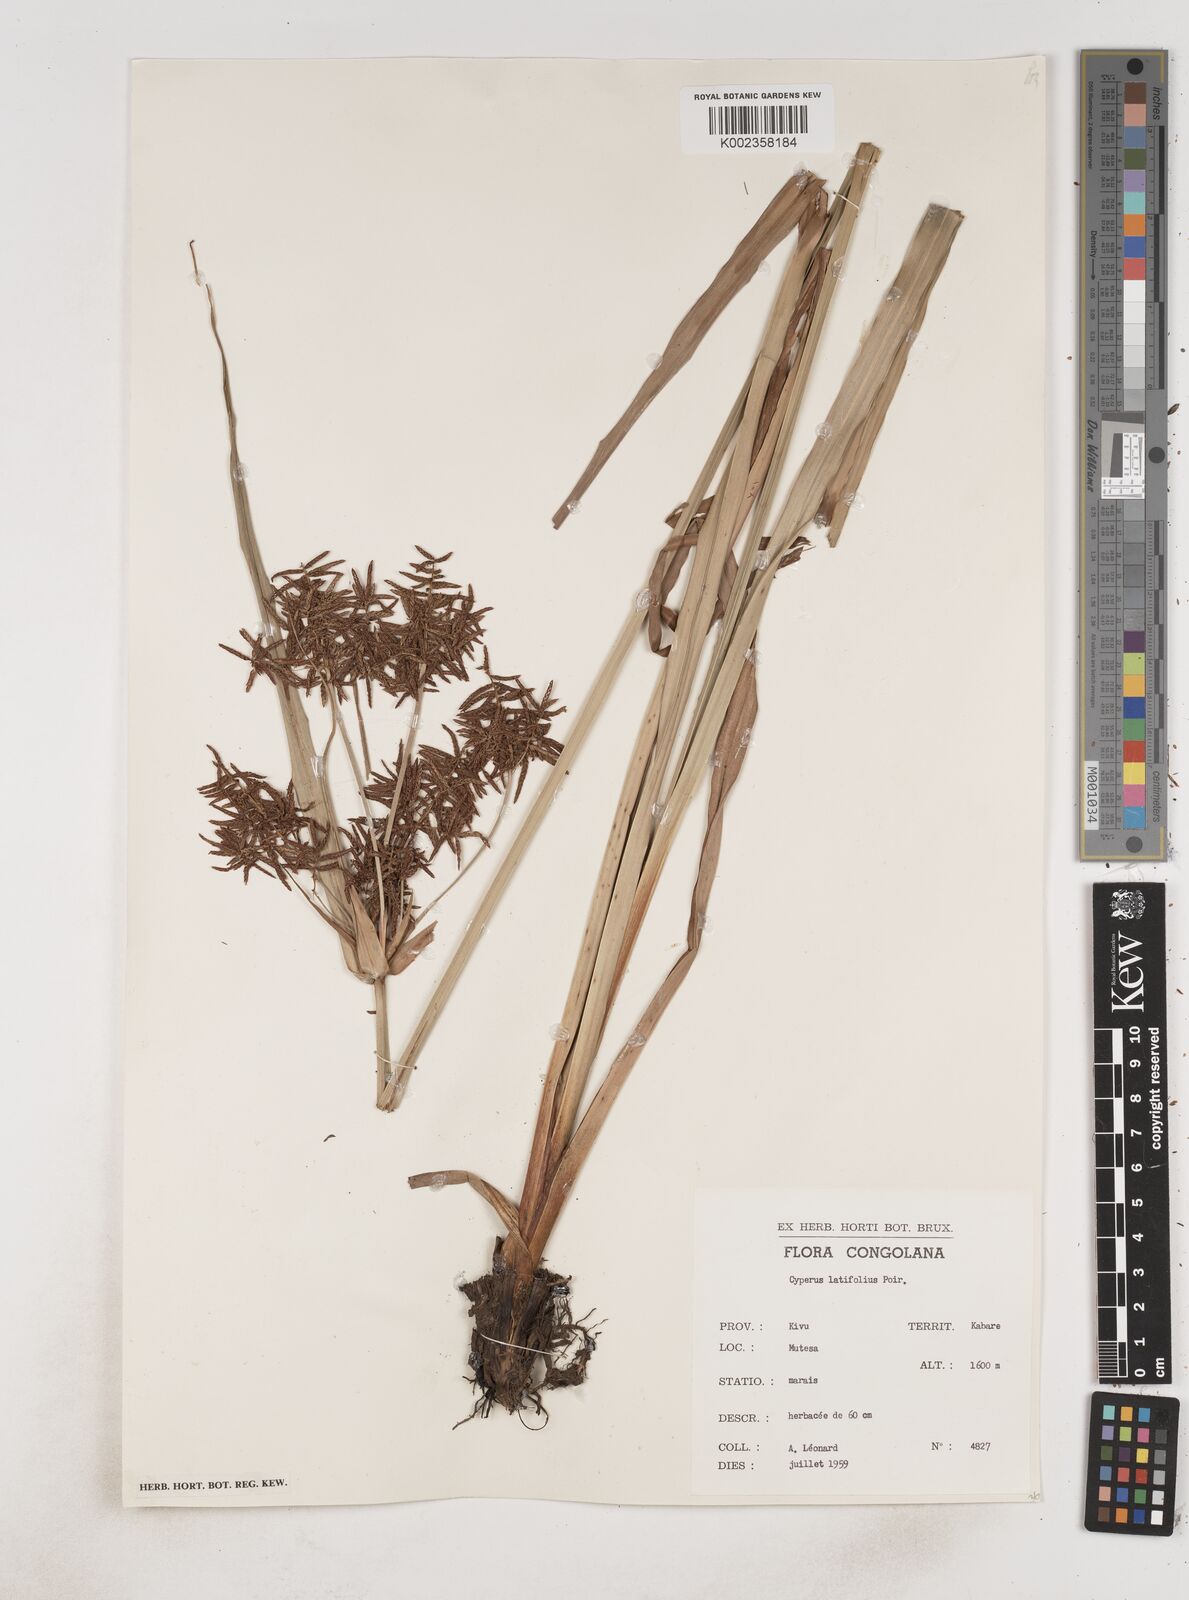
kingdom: Plantae
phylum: Tracheophyta
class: Liliopsida
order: Poales
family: Cyperaceae
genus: Cyperus
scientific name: Cyperus latifolius
